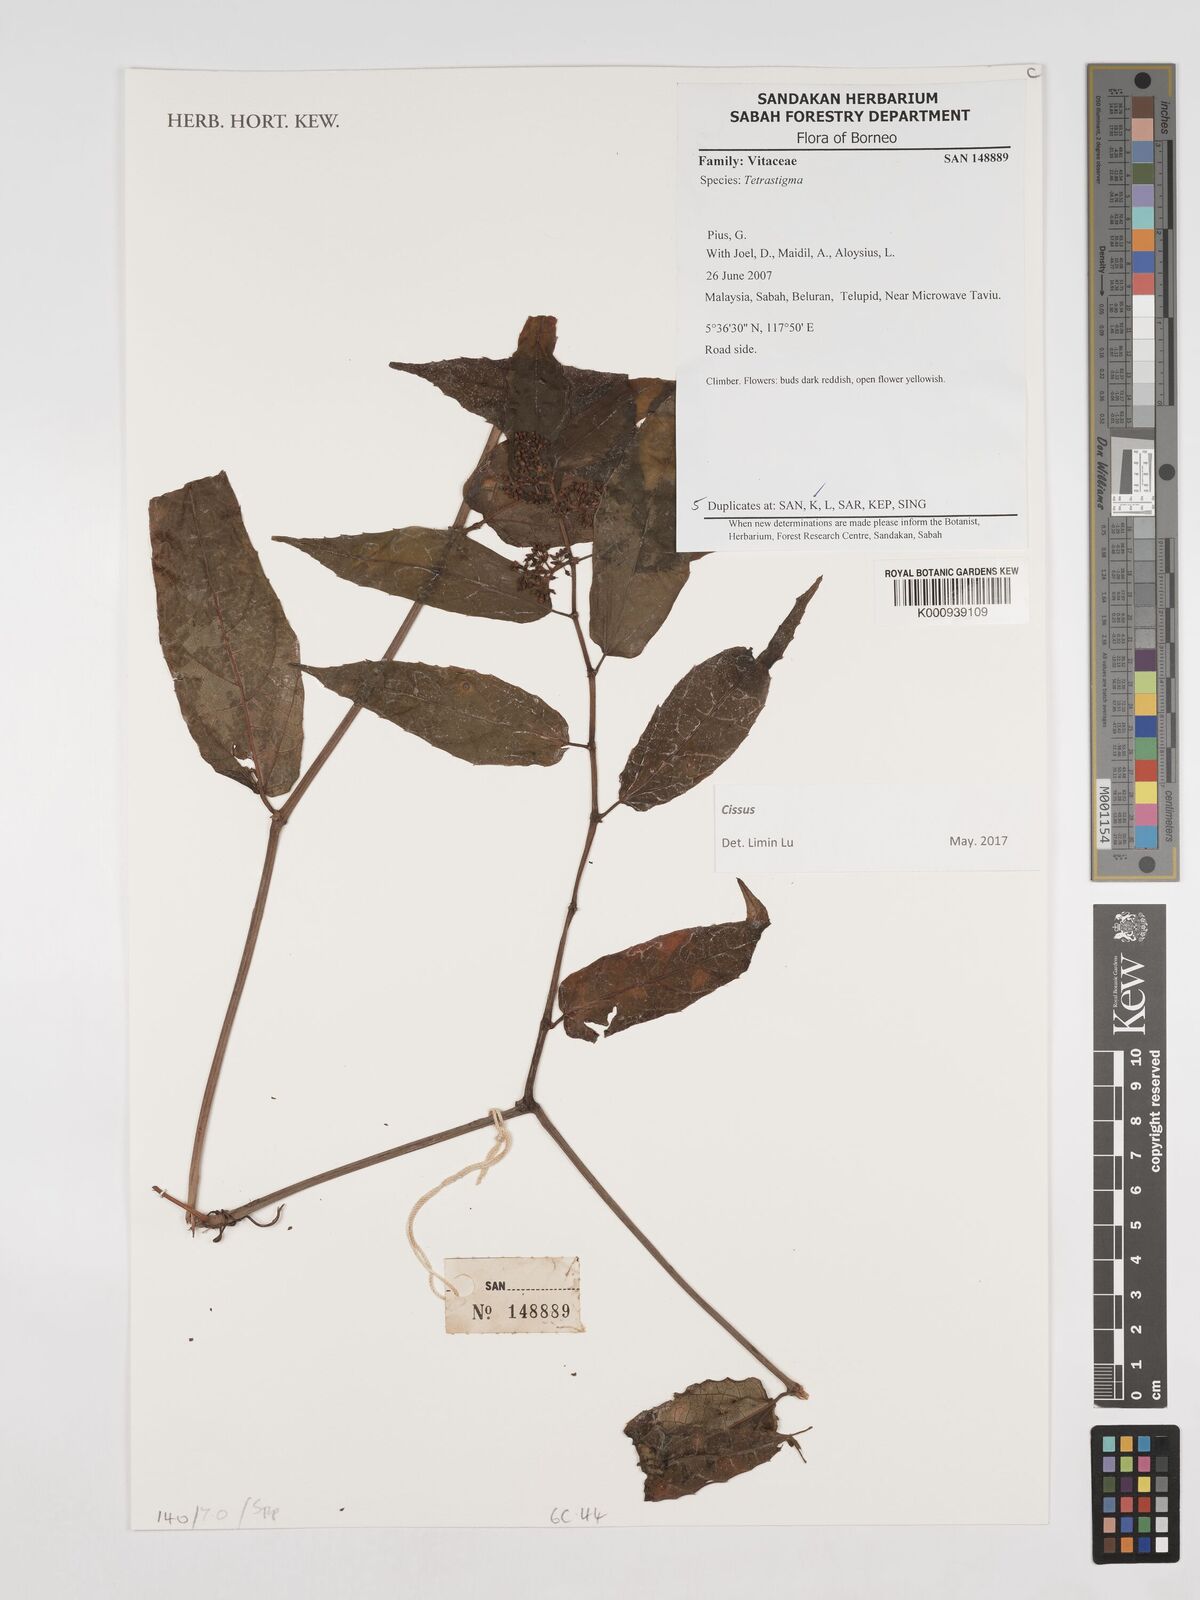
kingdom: Plantae
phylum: Tracheophyta
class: Magnoliopsida
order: Vitales
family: Vitaceae
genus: Tetrastigma
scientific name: Tetrastigma
